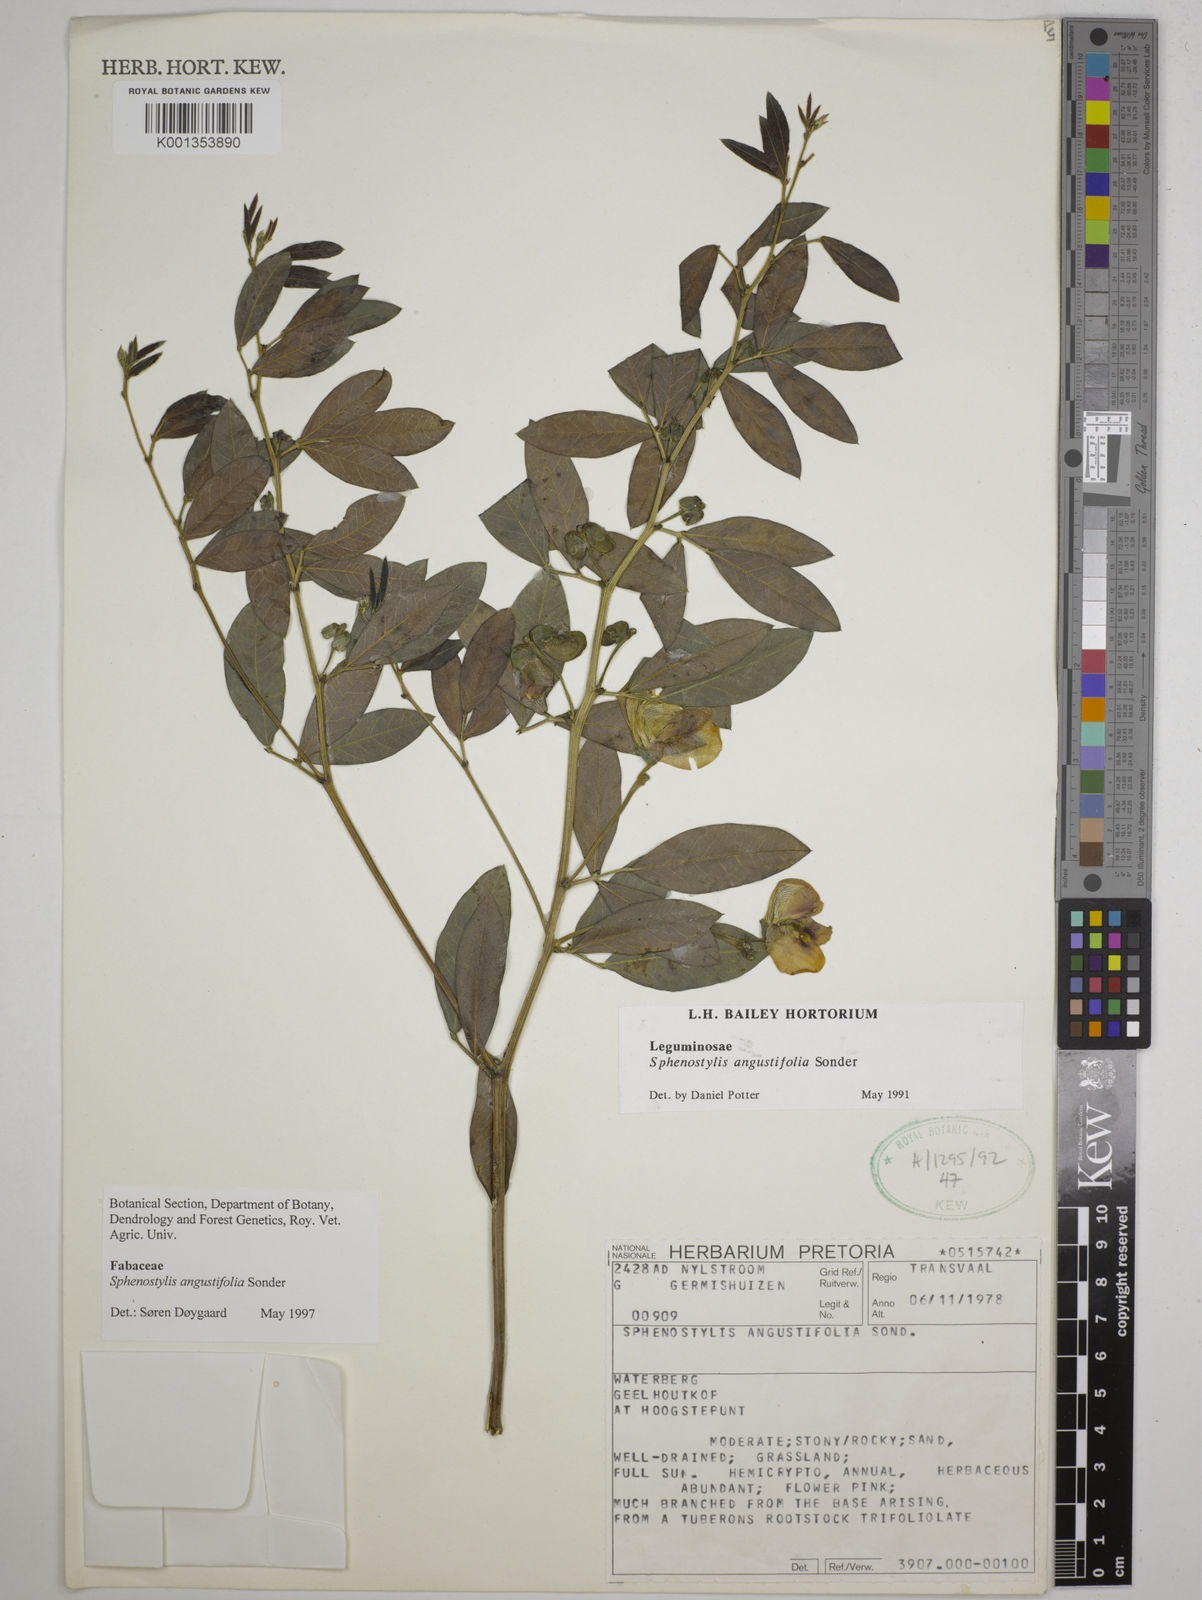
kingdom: Plantae
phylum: Tracheophyta
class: Magnoliopsida
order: Fabales
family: Fabaceae
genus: Sphenostylis
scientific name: Sphenostylis angustifolia
